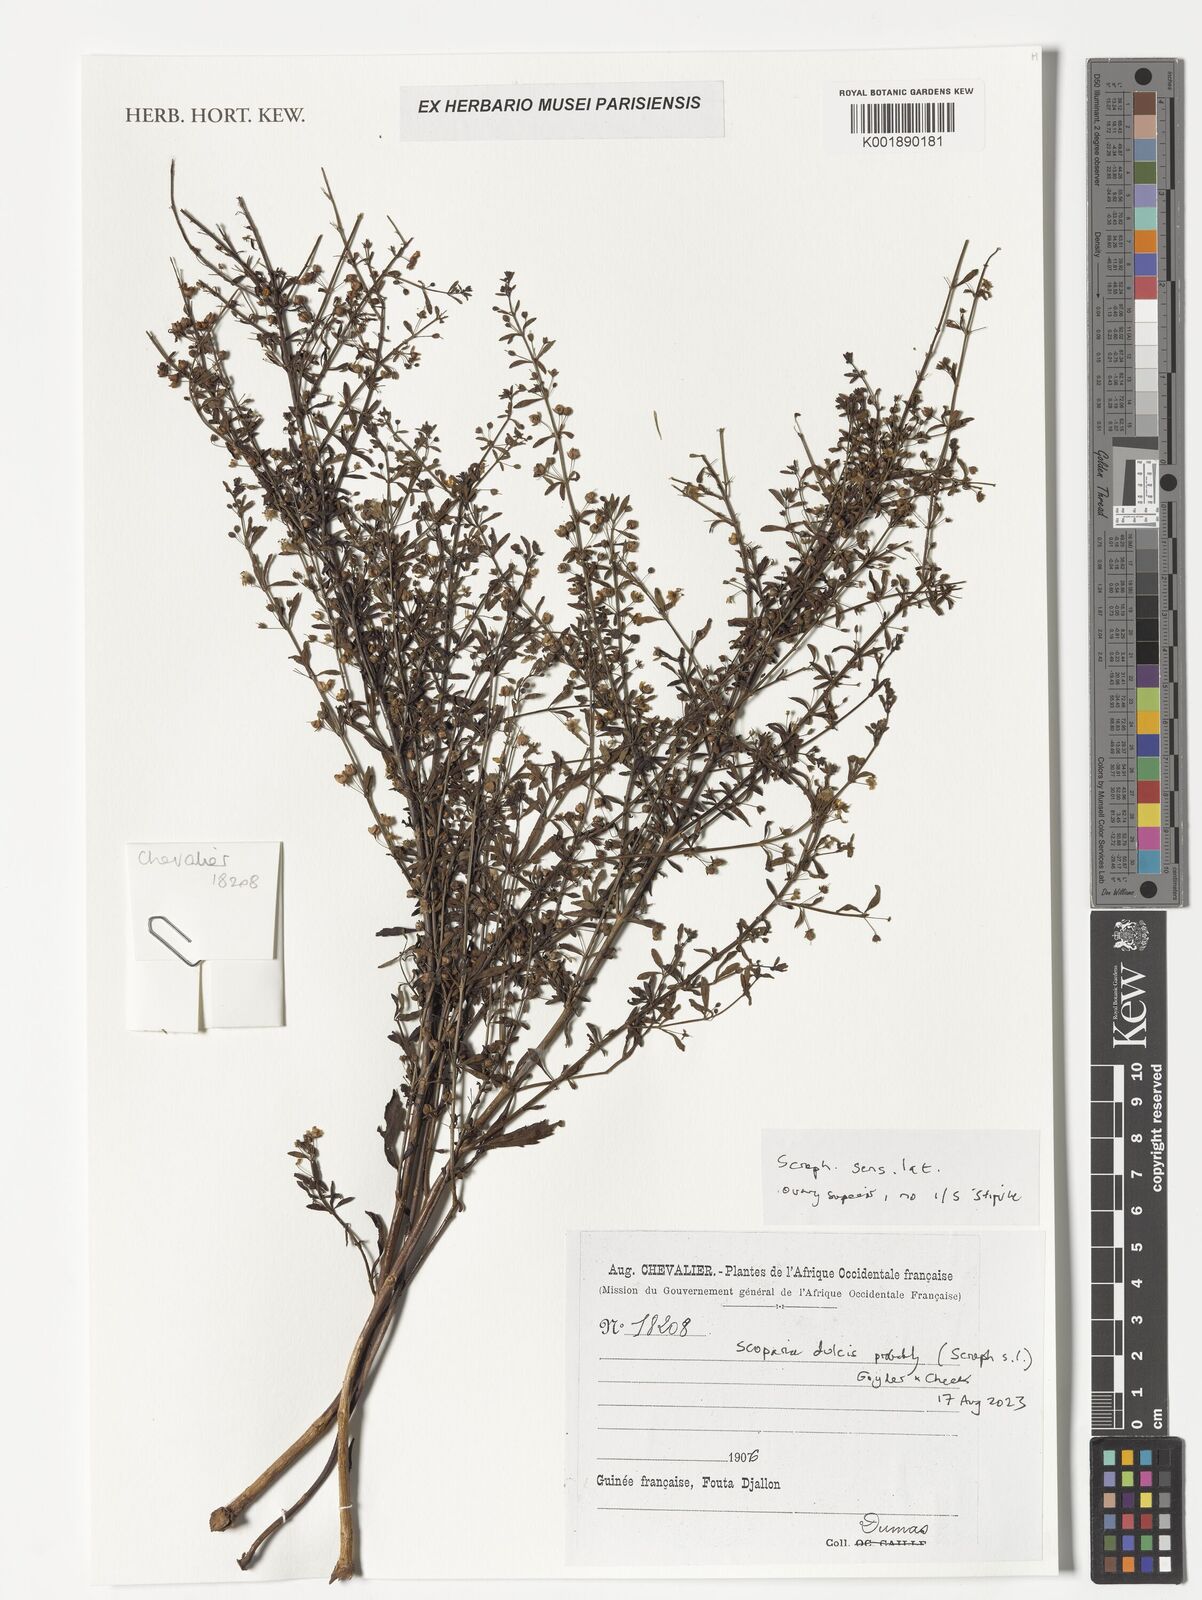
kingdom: Plantae
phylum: Tracheophyta
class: Magnoliopsida
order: Lamiales
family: Plantaginaceae
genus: Scoparia
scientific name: Scoparia dulcis
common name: Scoparia-weed
